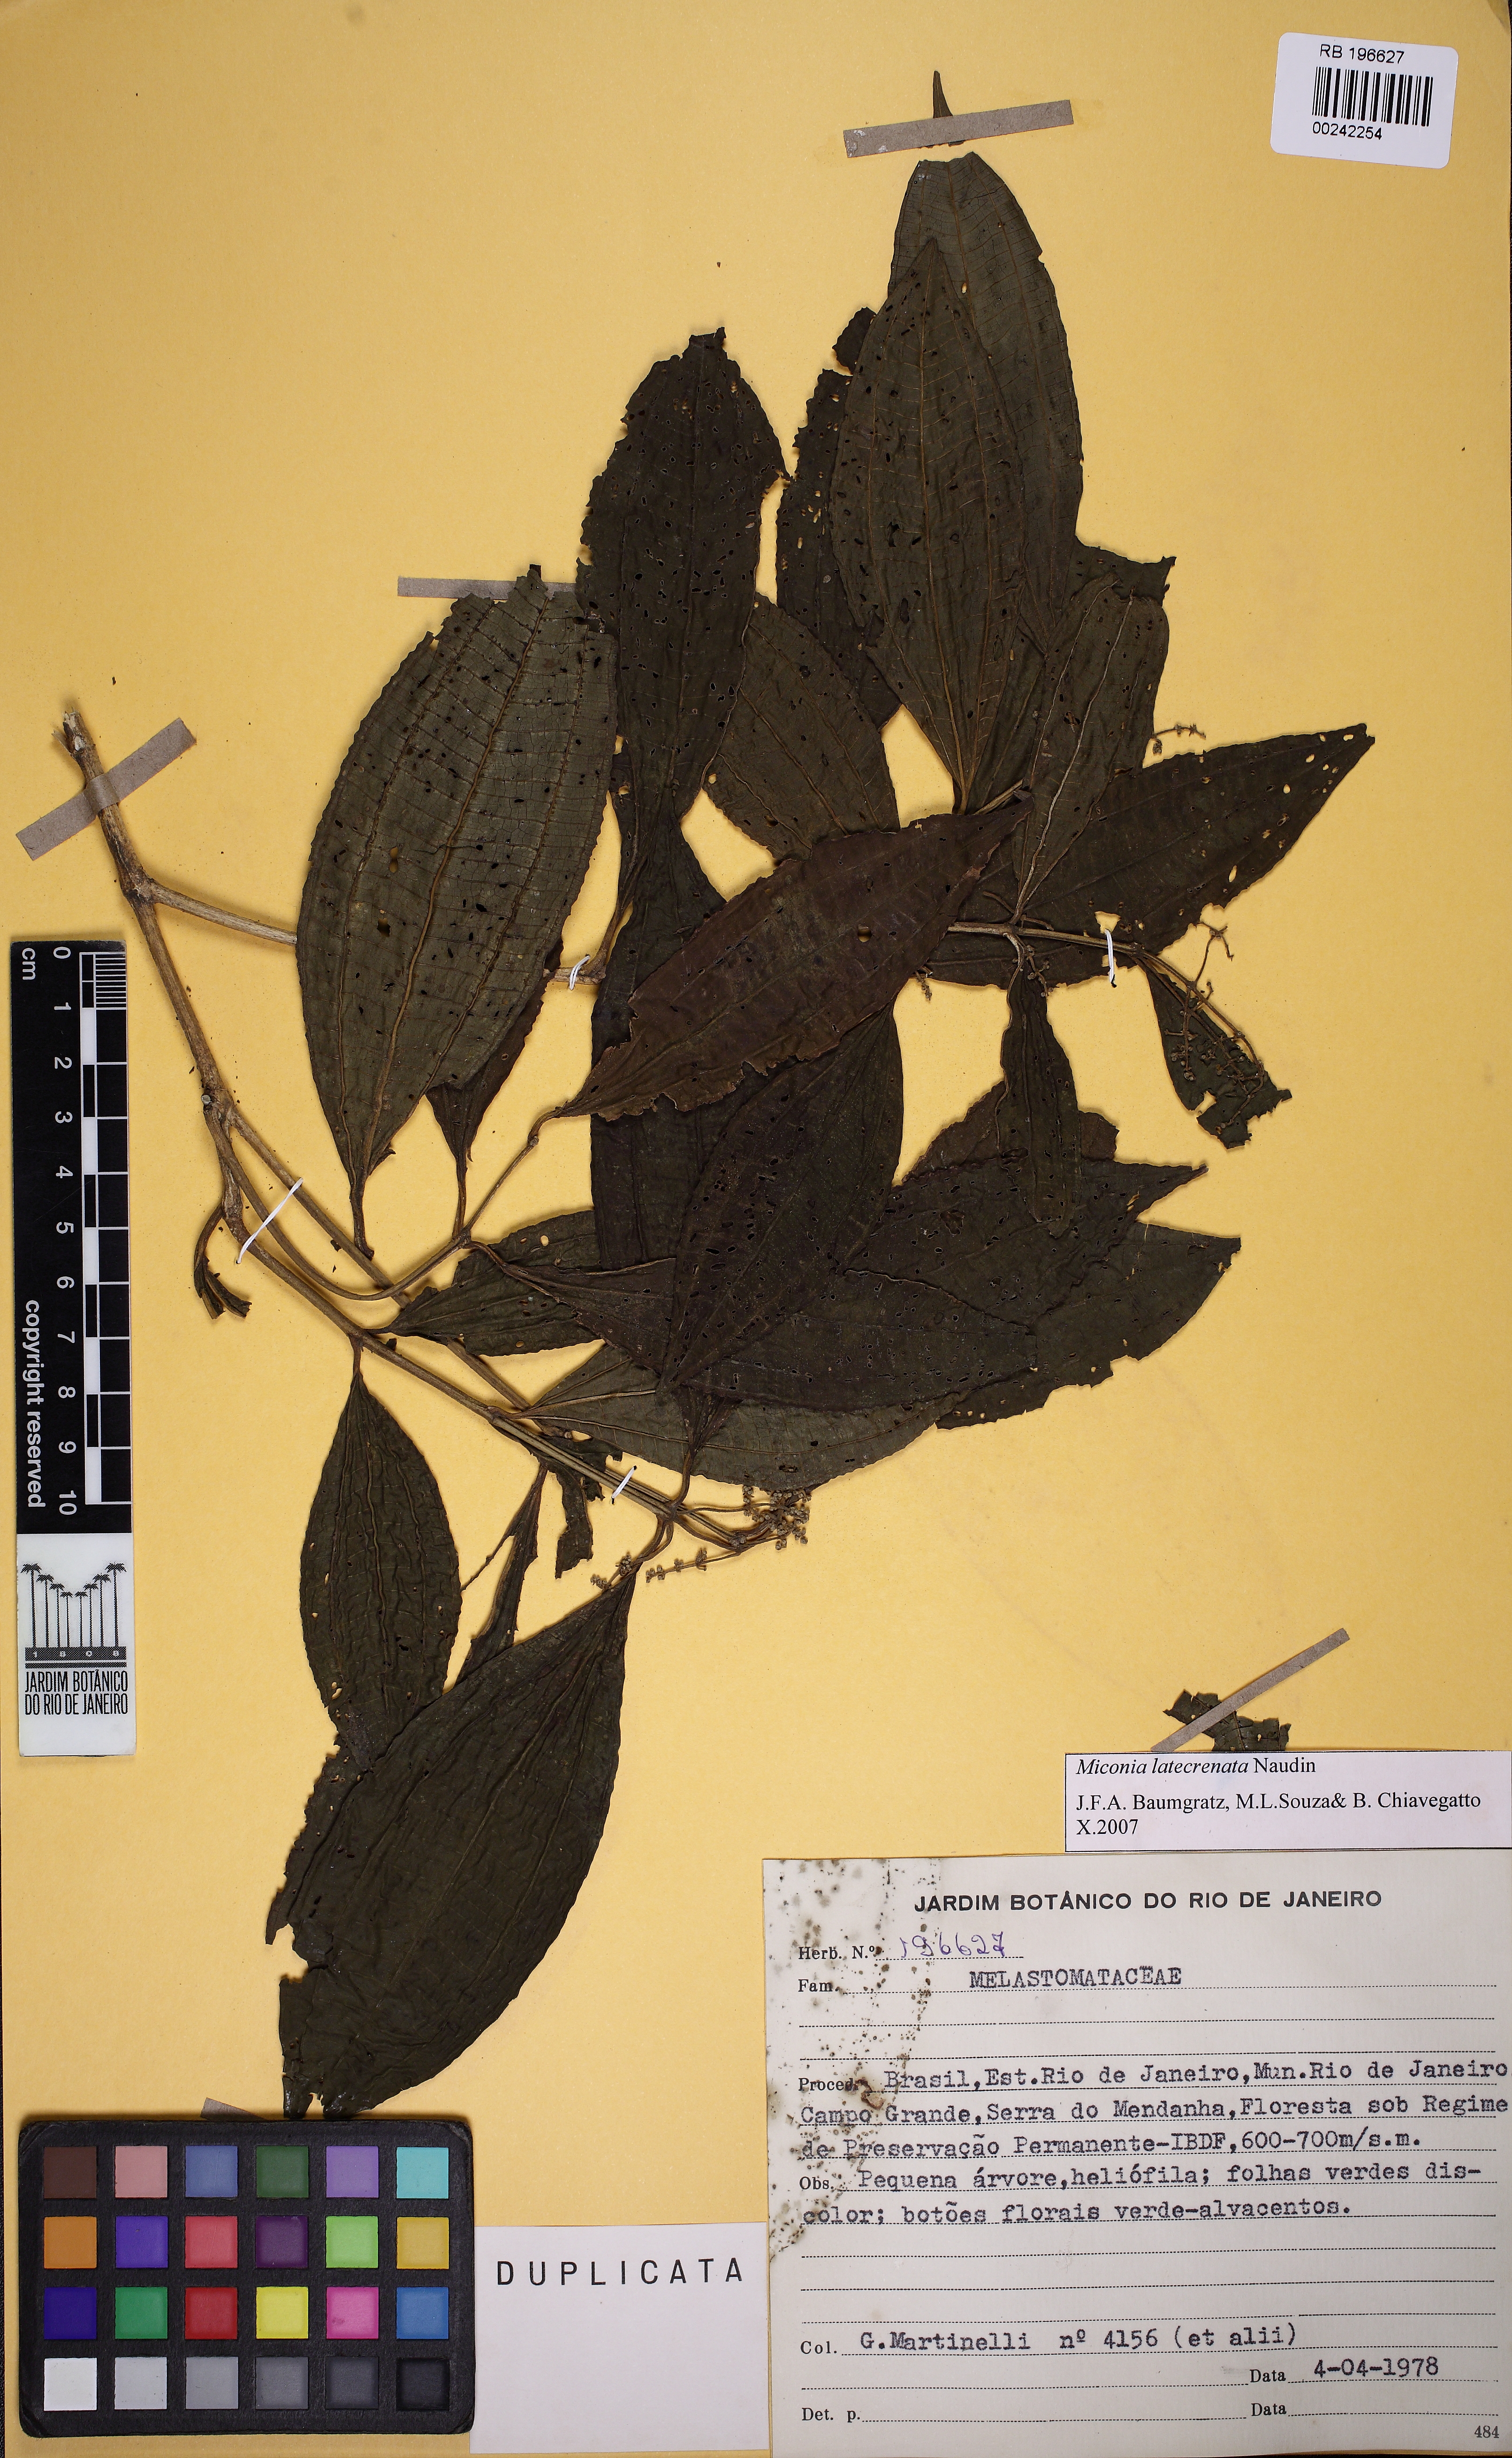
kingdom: Plantae
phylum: Tracheophyta
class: Magnoliopsida
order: Myrtales
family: Melastomataceae
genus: Miconia
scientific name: Miconia latecrenata
